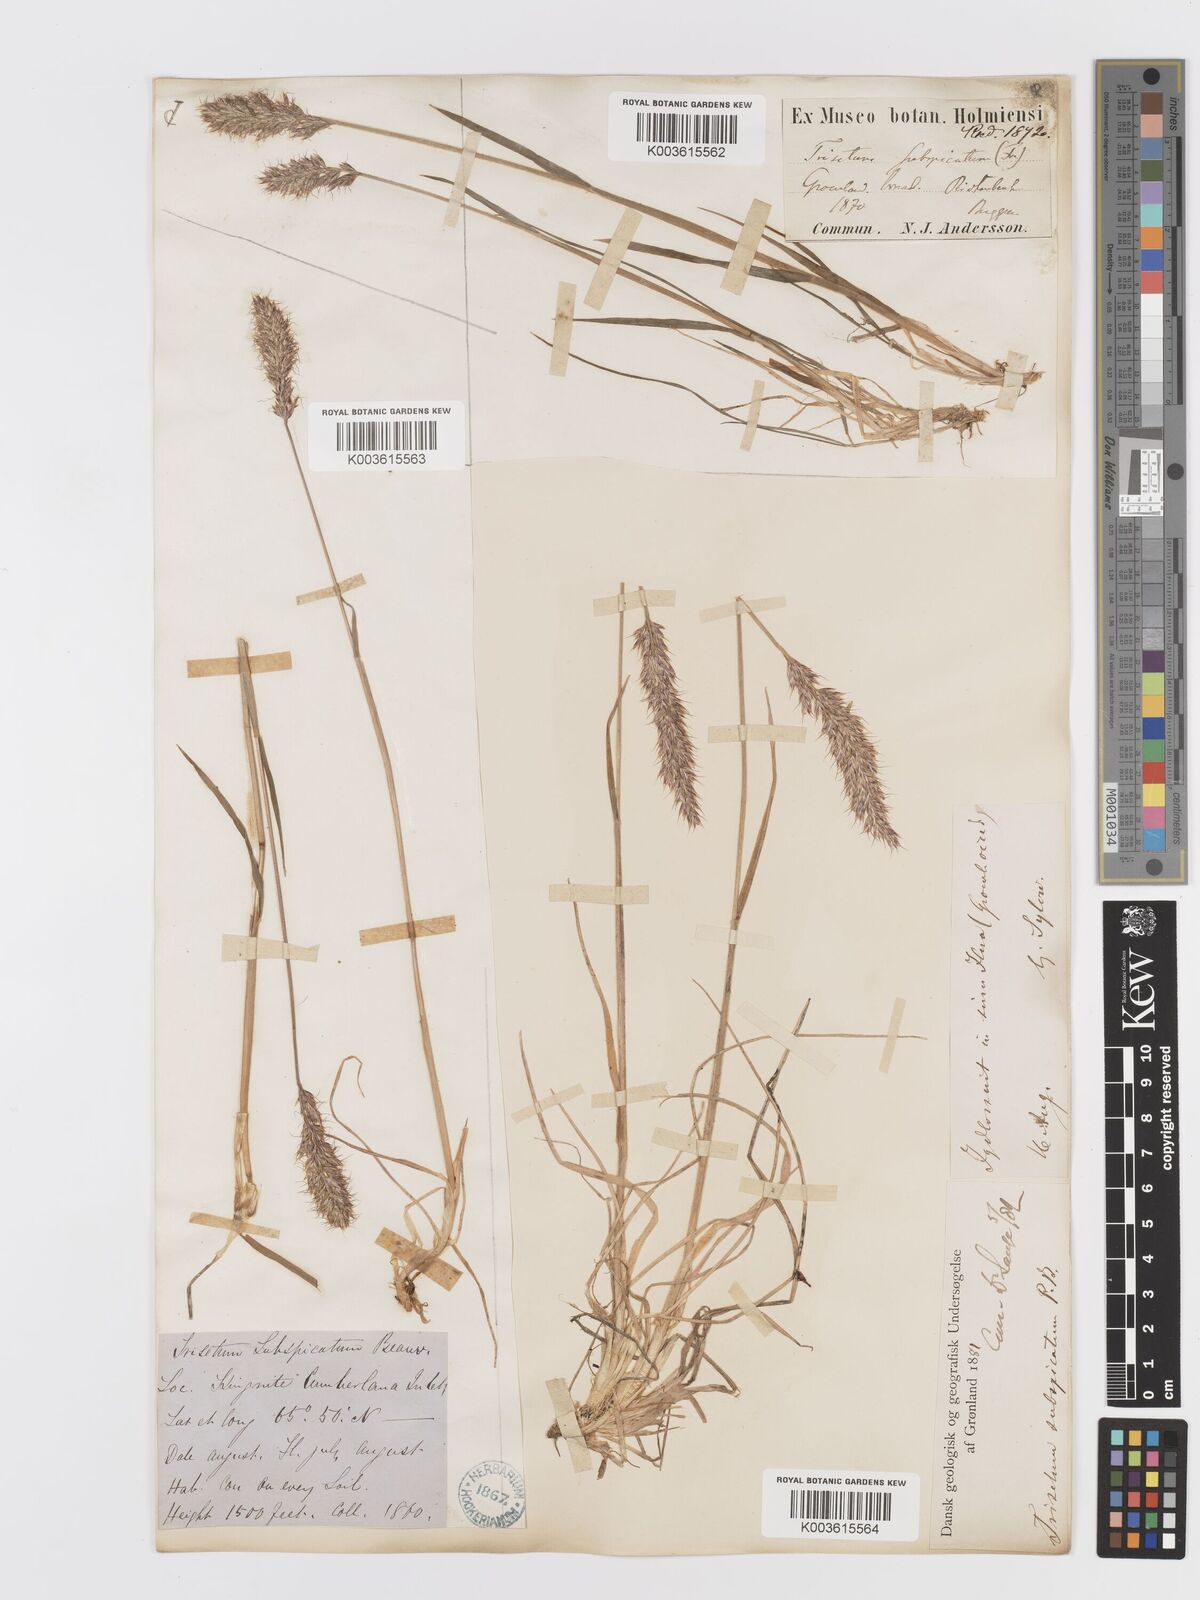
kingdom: Plantae
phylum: Tracheophyta
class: Liliopsida
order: Poales
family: Poaceae
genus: Koeleria
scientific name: Koeleria spicata
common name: Mountain trisetum
